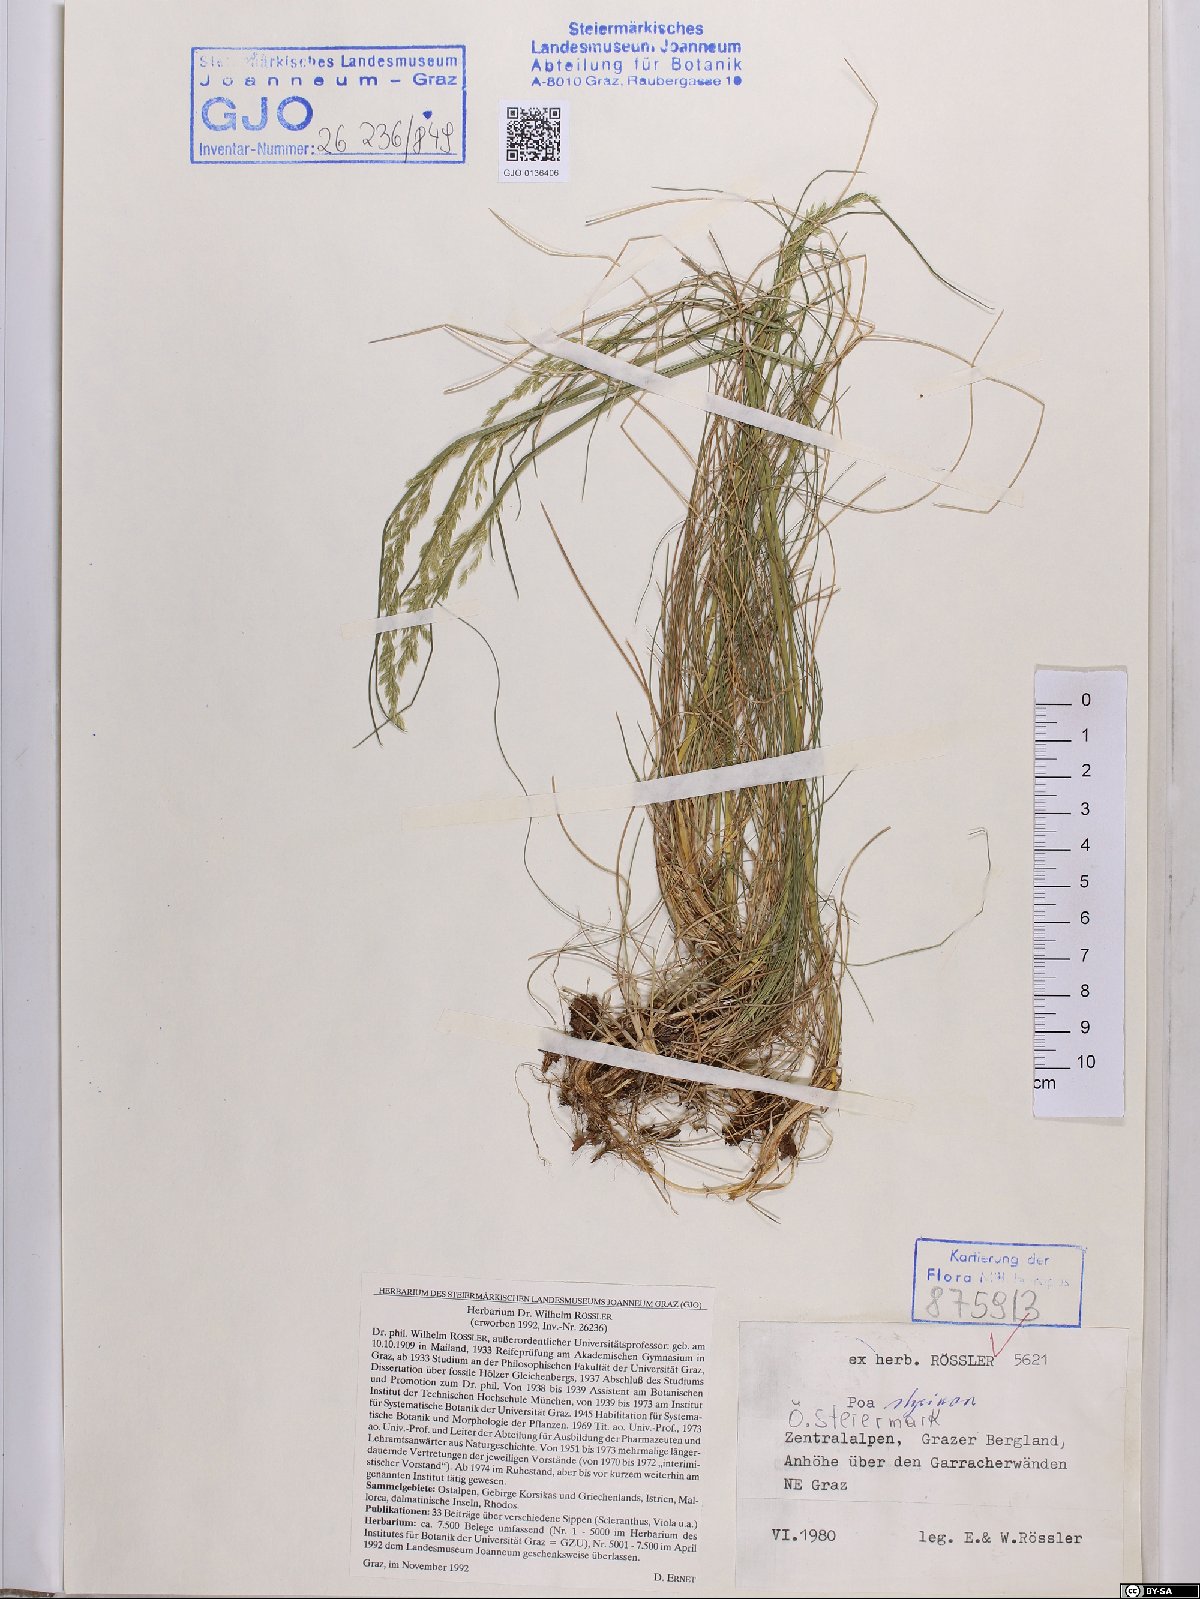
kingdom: Plantae
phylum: Tracheophyta
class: Liliopsida
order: Poales
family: Poaceae
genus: Poa
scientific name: Poa stiriaca
